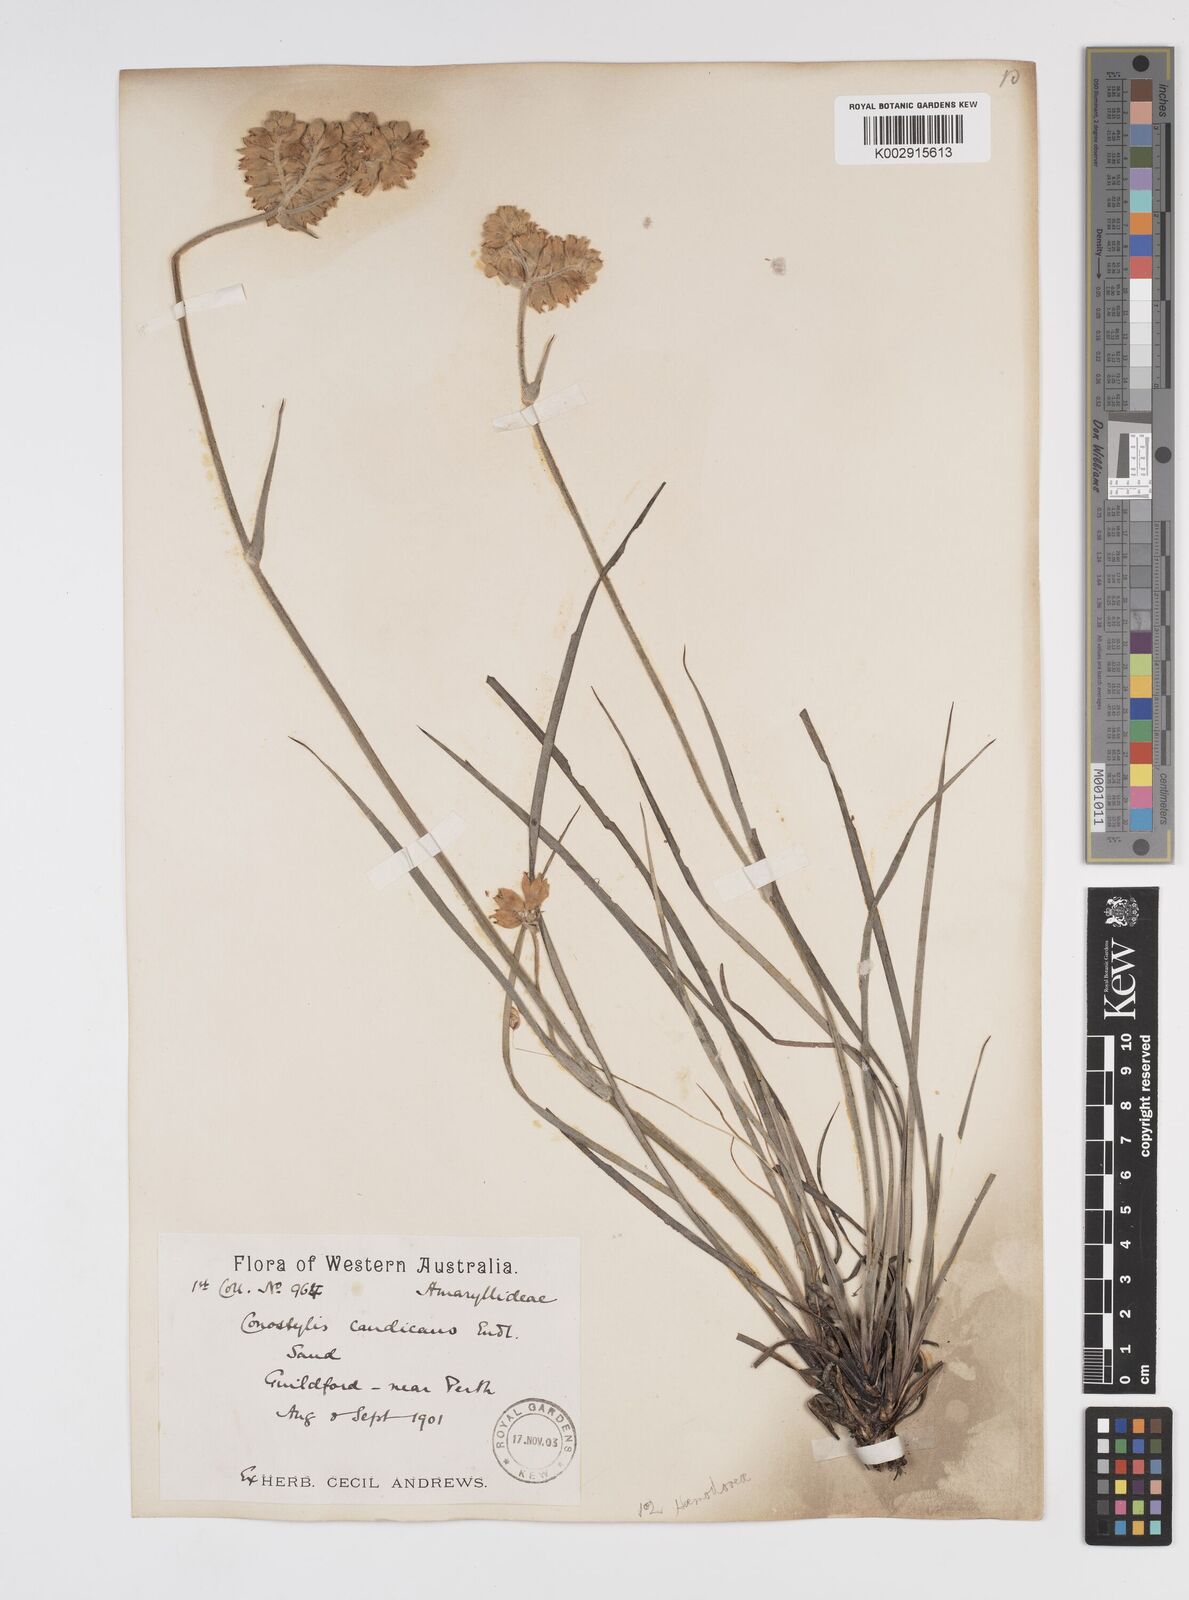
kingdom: Plantae
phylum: Tracheophyta
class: Liliopsida
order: Commelinales
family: Haemodoraceae
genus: Conostylis
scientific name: Conostylis candicans
